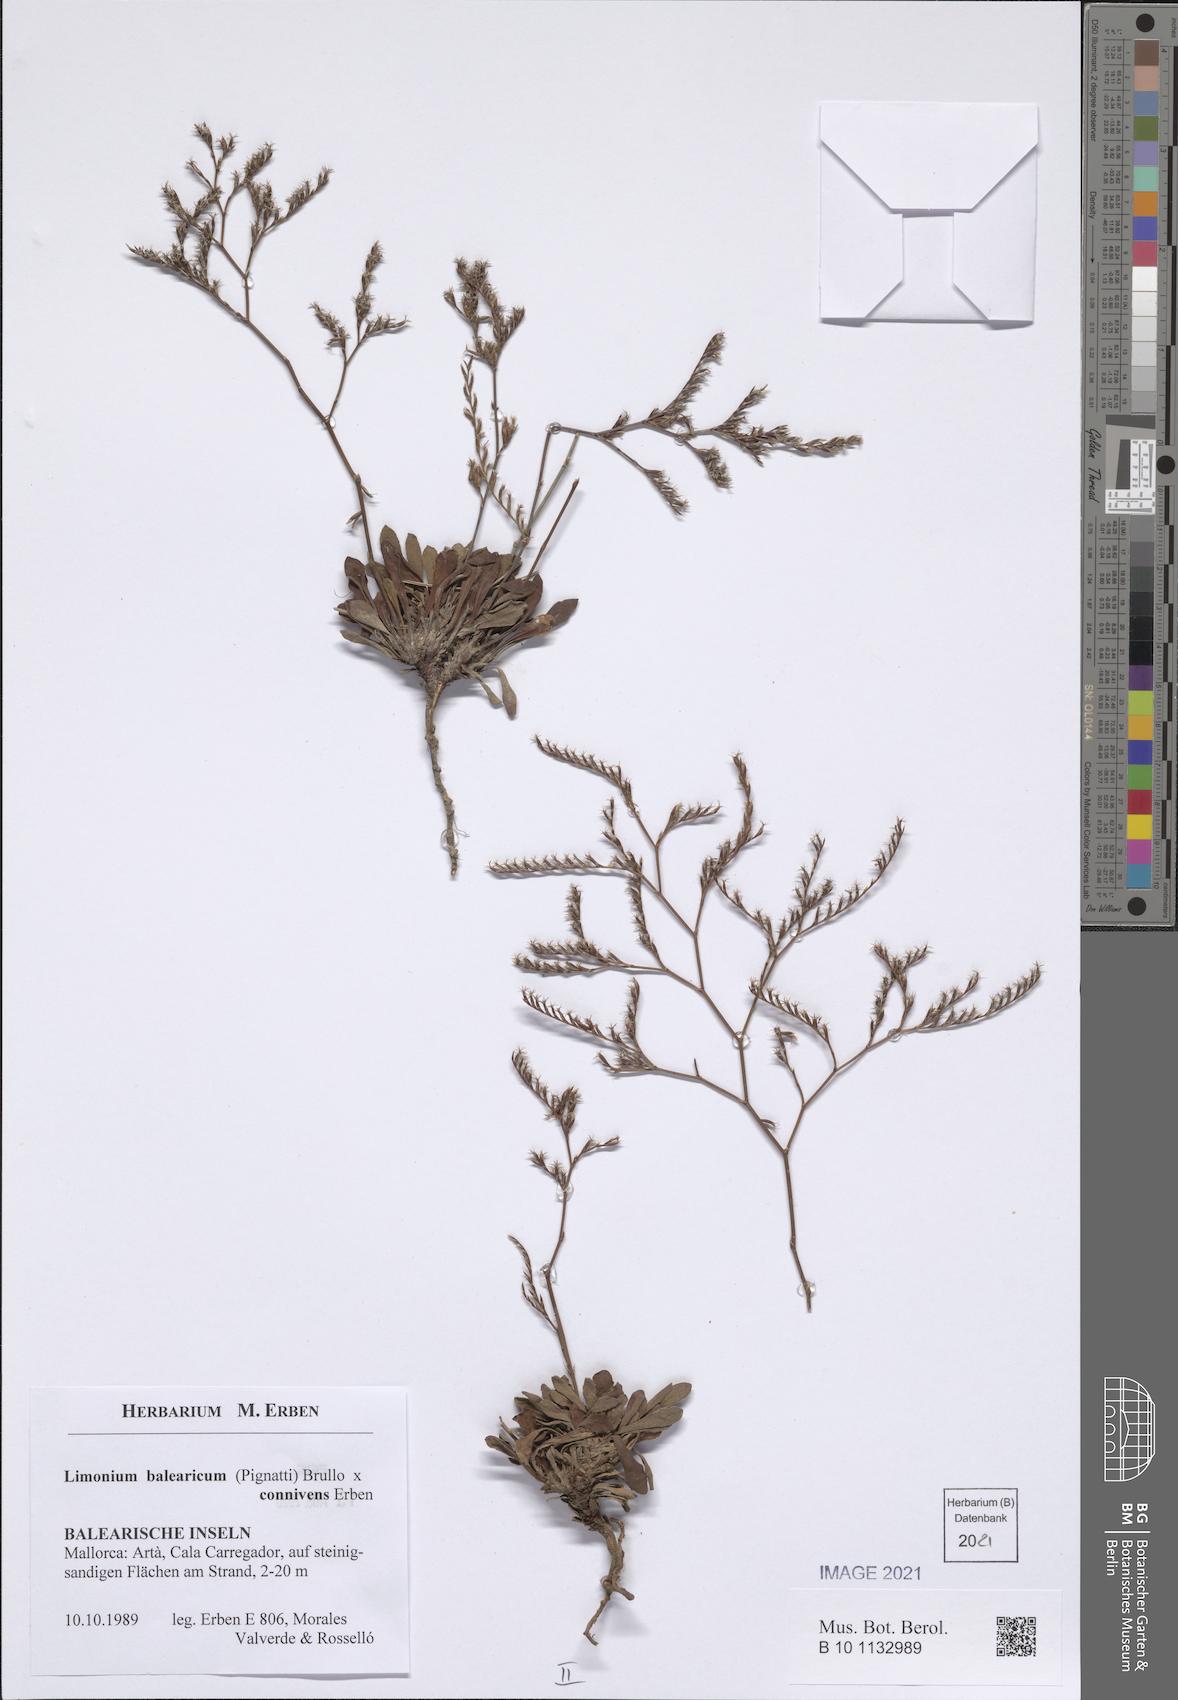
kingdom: Plantae
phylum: Tracheophyta
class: Magnoliopsida
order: Caryophyllales
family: Plumbaginaceae
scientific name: Plumbaginaceae
